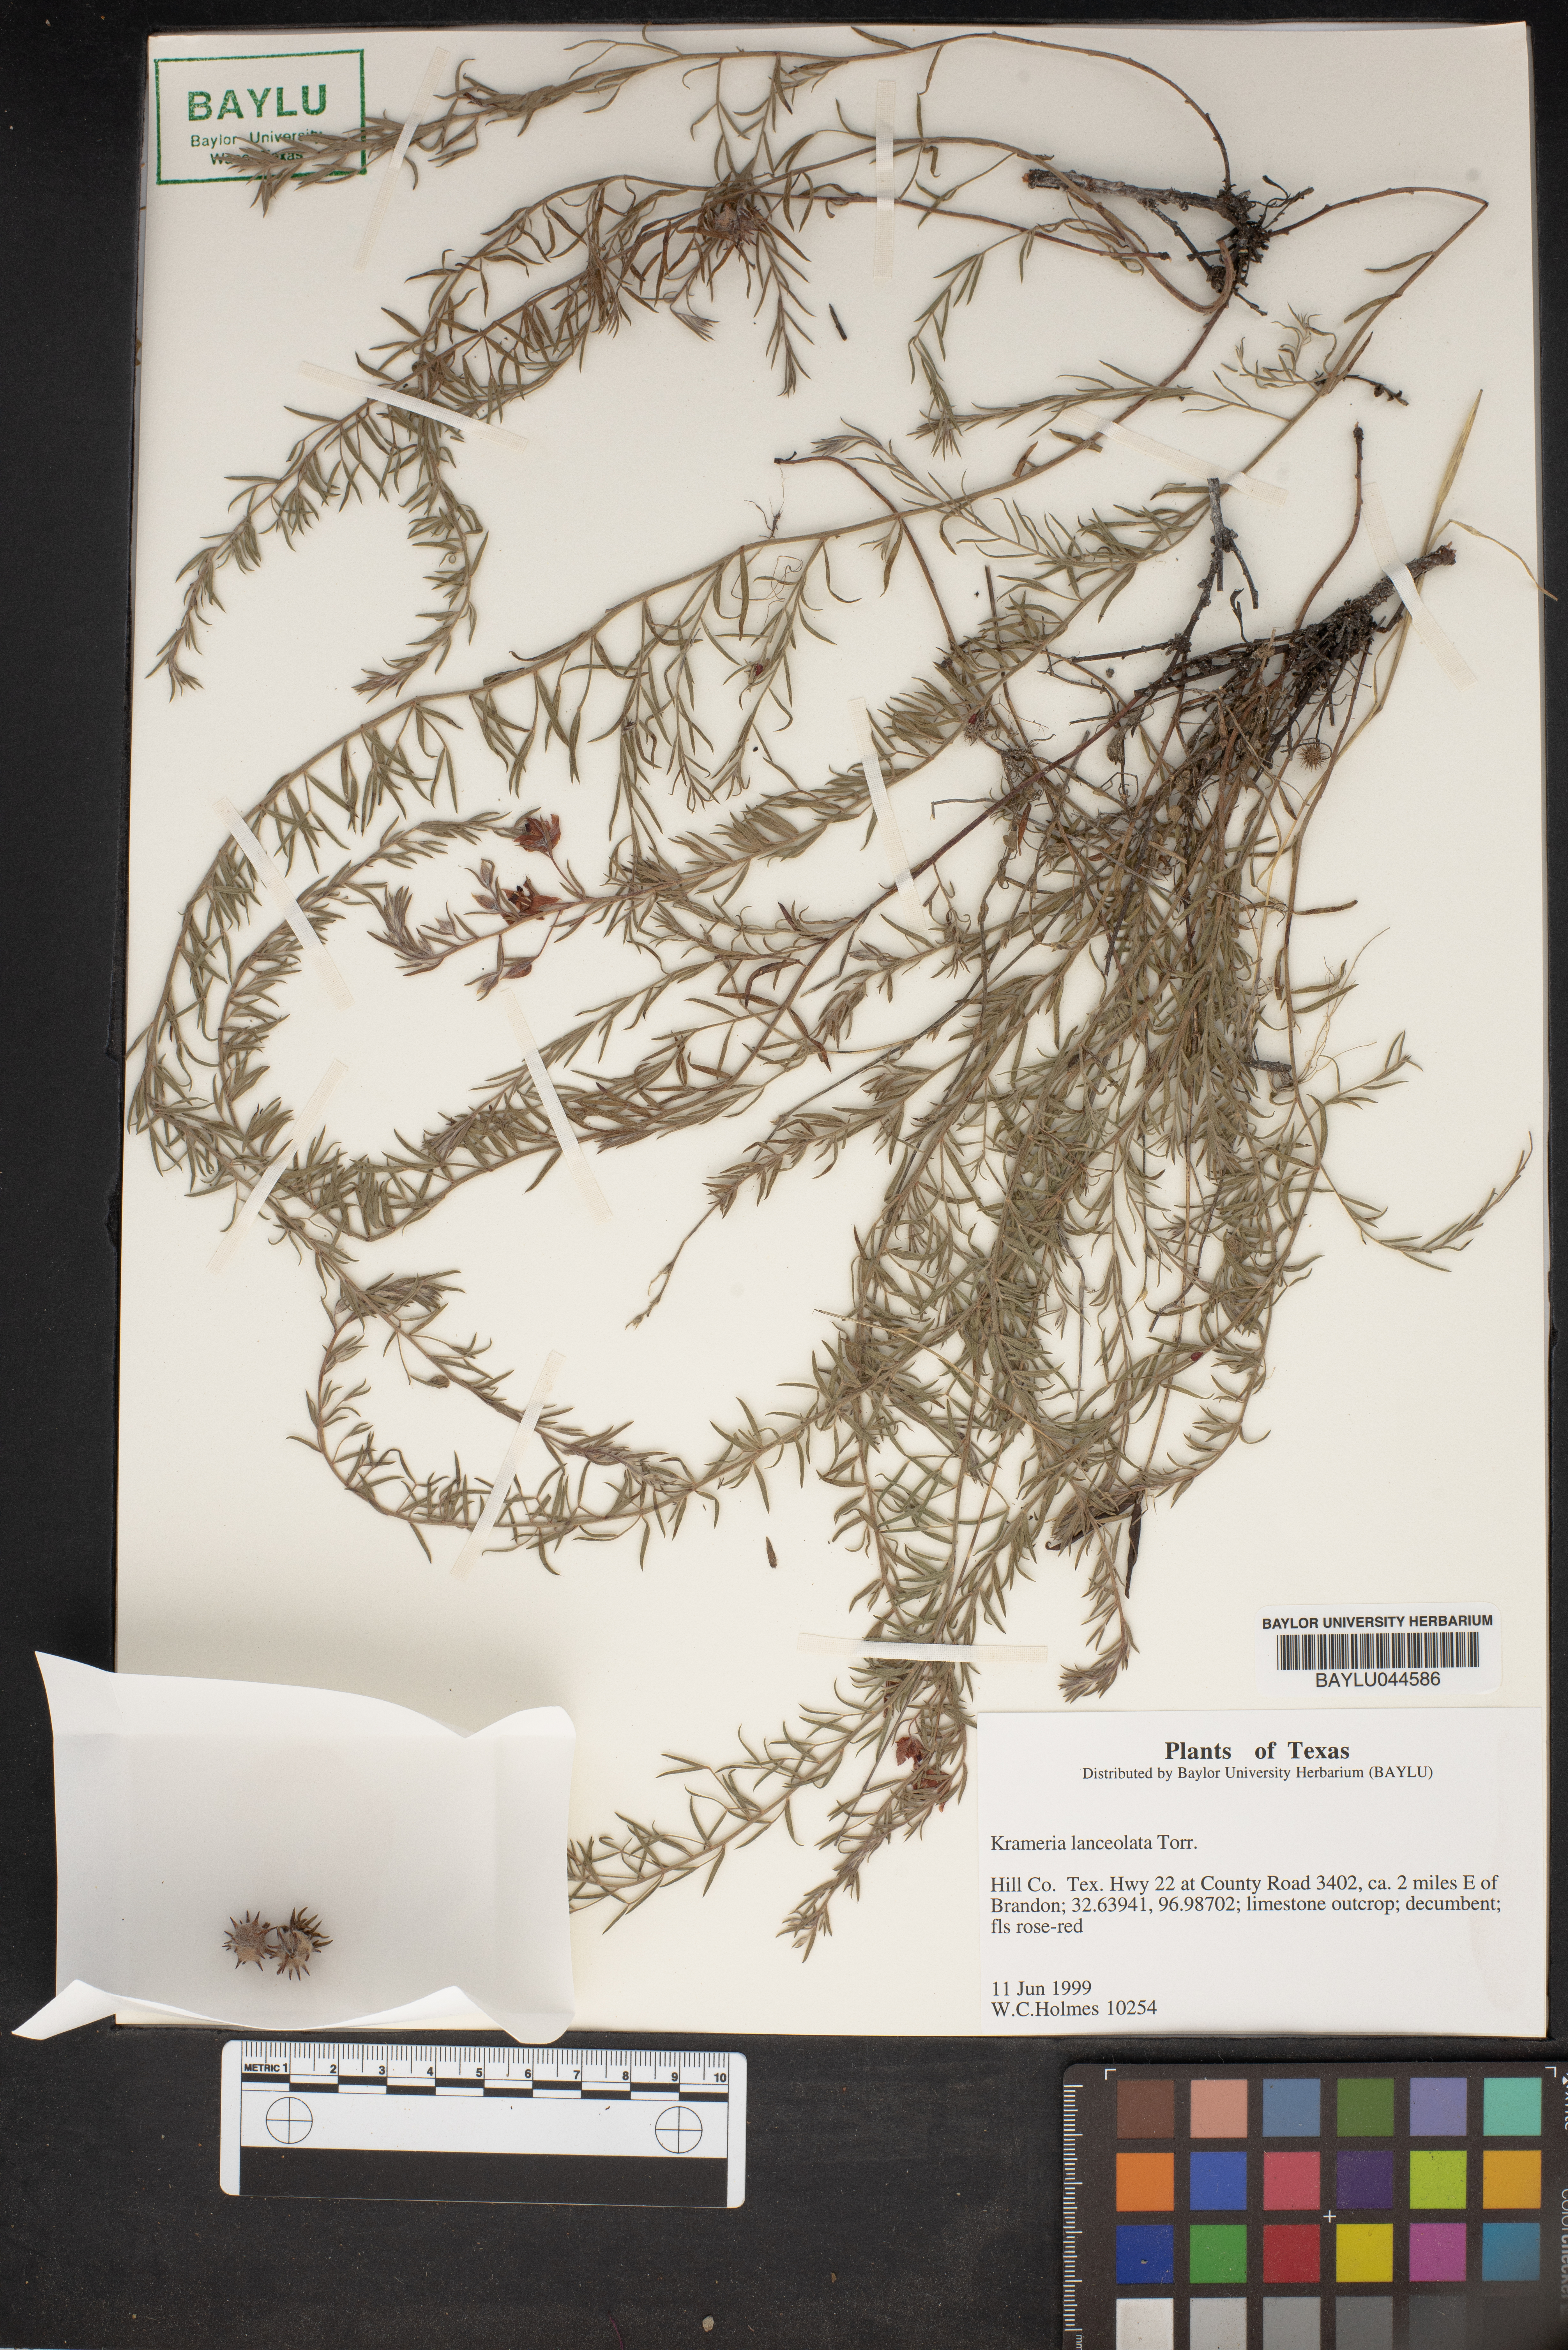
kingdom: Plantae
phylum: Tracheophyta
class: Magnoliopsida
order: Zygophyllales
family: Krameriaceae
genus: Krameria
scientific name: Krameria lanceolata
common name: Ratany
